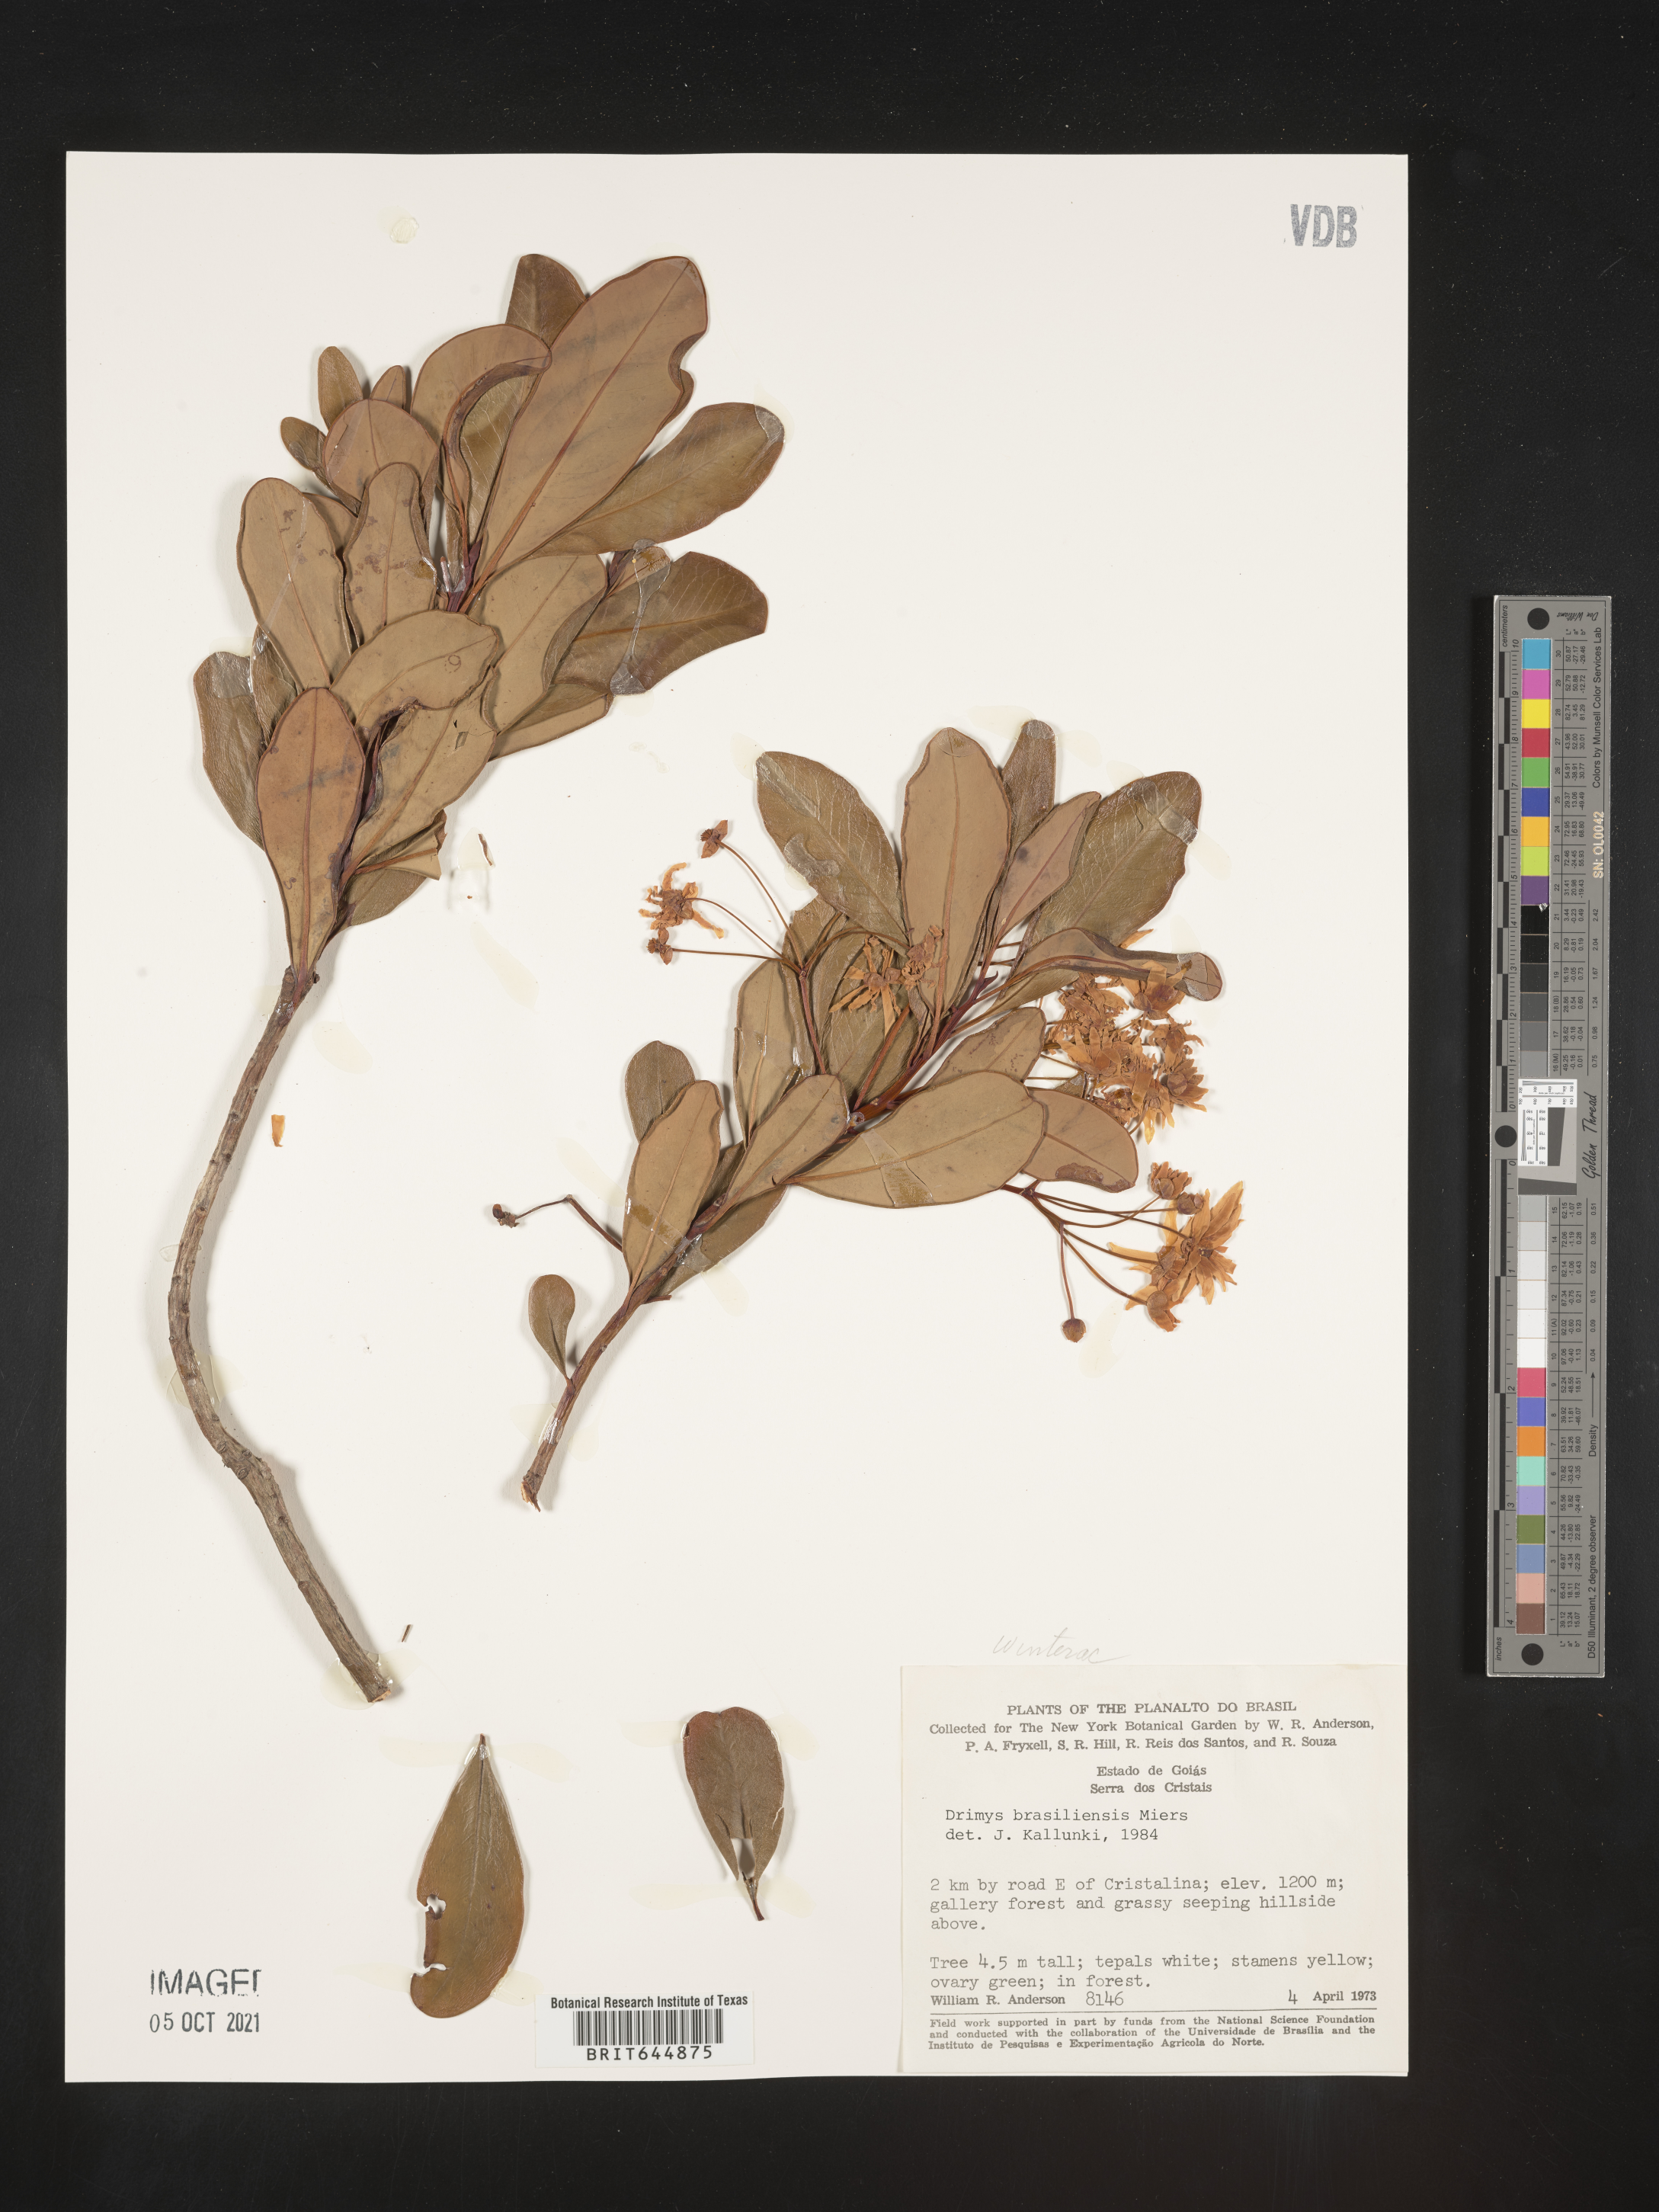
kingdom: Plantae
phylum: Tracheophyta
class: Magnoliopsida
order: Canellales
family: Winteraceae
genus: Drimys
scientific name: Drimys
